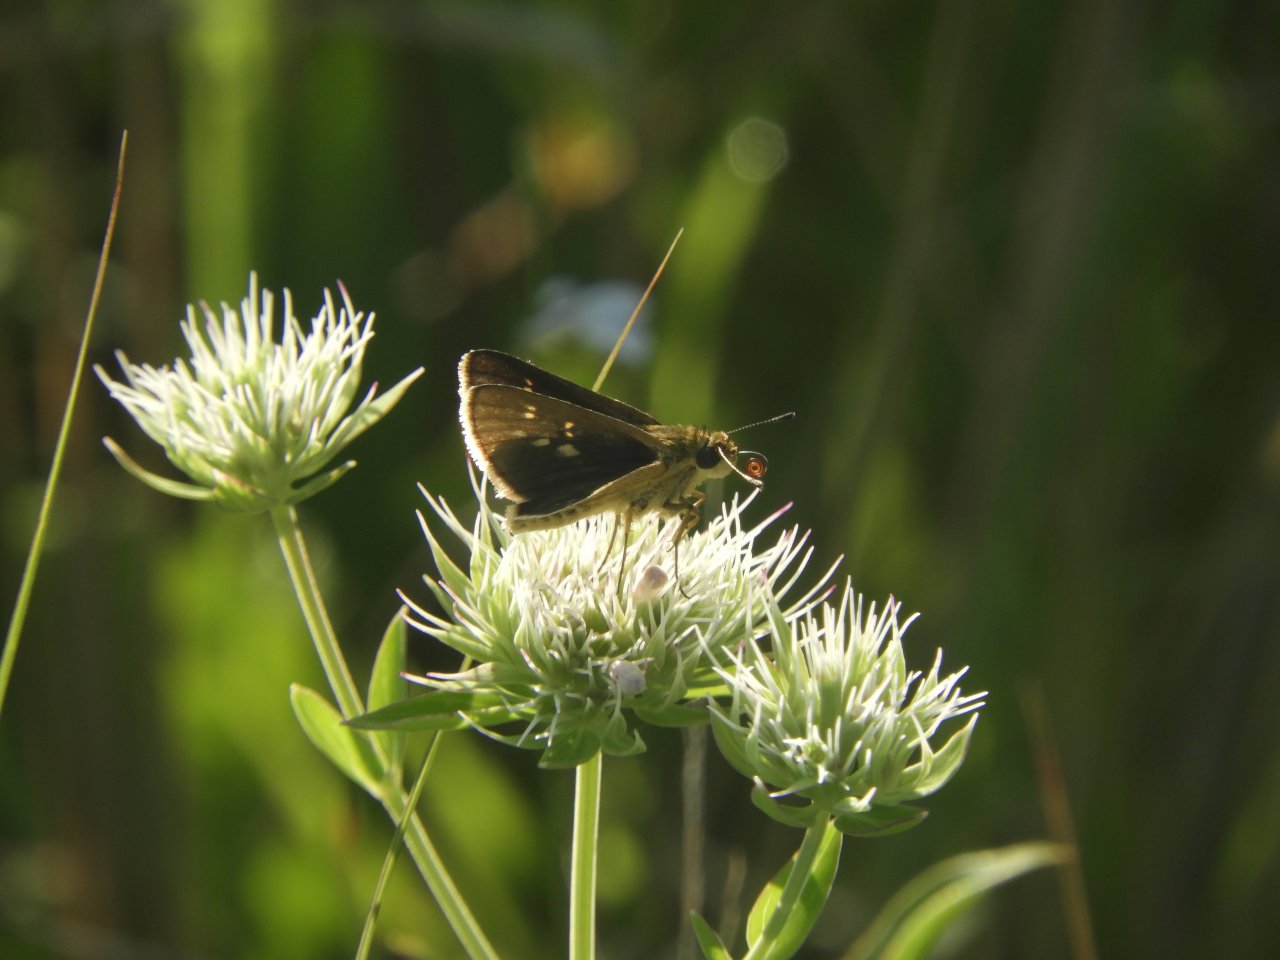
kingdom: Animalia
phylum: Arthropoda
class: Insecta
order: Lepidoptera
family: Hesperiidae
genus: Mastor
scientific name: Mastor carolina
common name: Reversed Roadside-skipper
